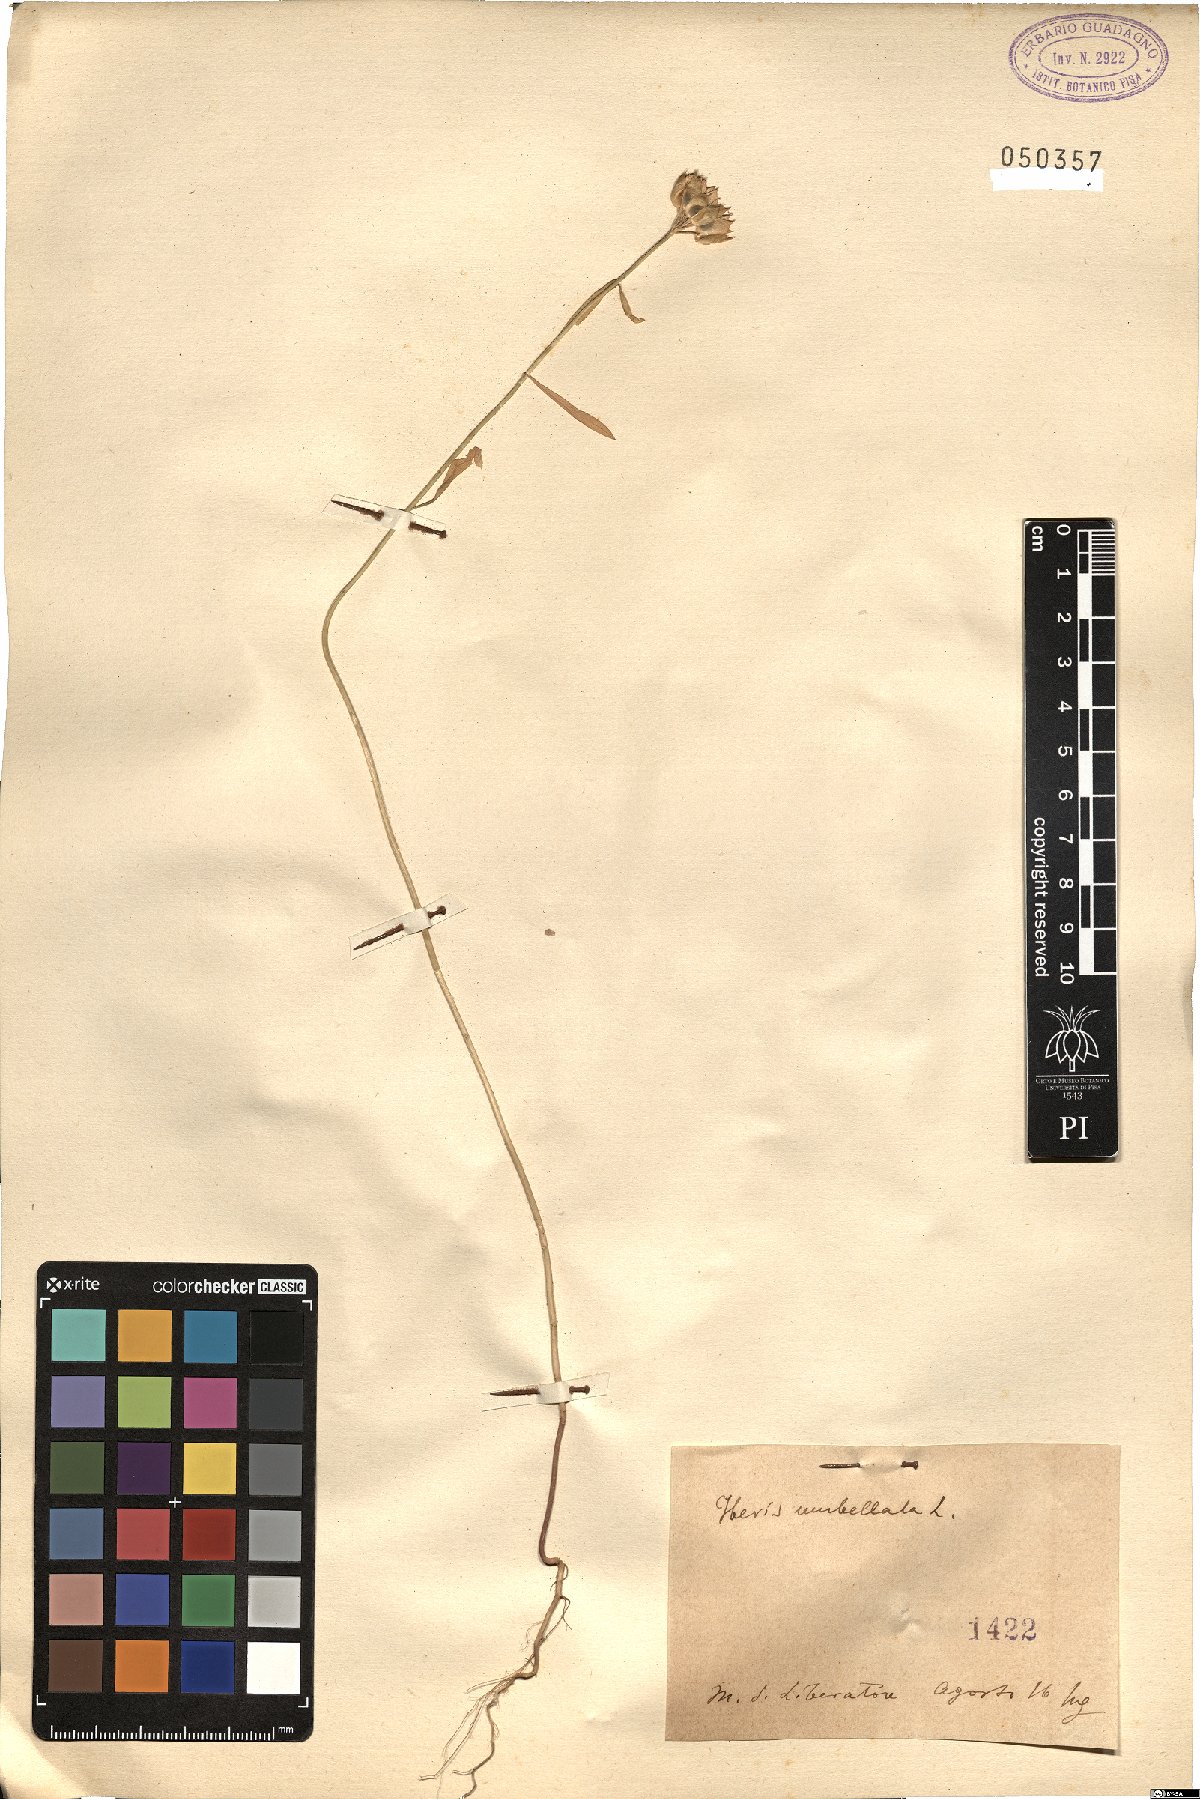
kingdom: Plantae
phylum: Tracheophyta
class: Magnoliopsida
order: Brassicales
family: Brassicaceae
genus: Iberis
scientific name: Iberis umbellata
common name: Globe candytuft
